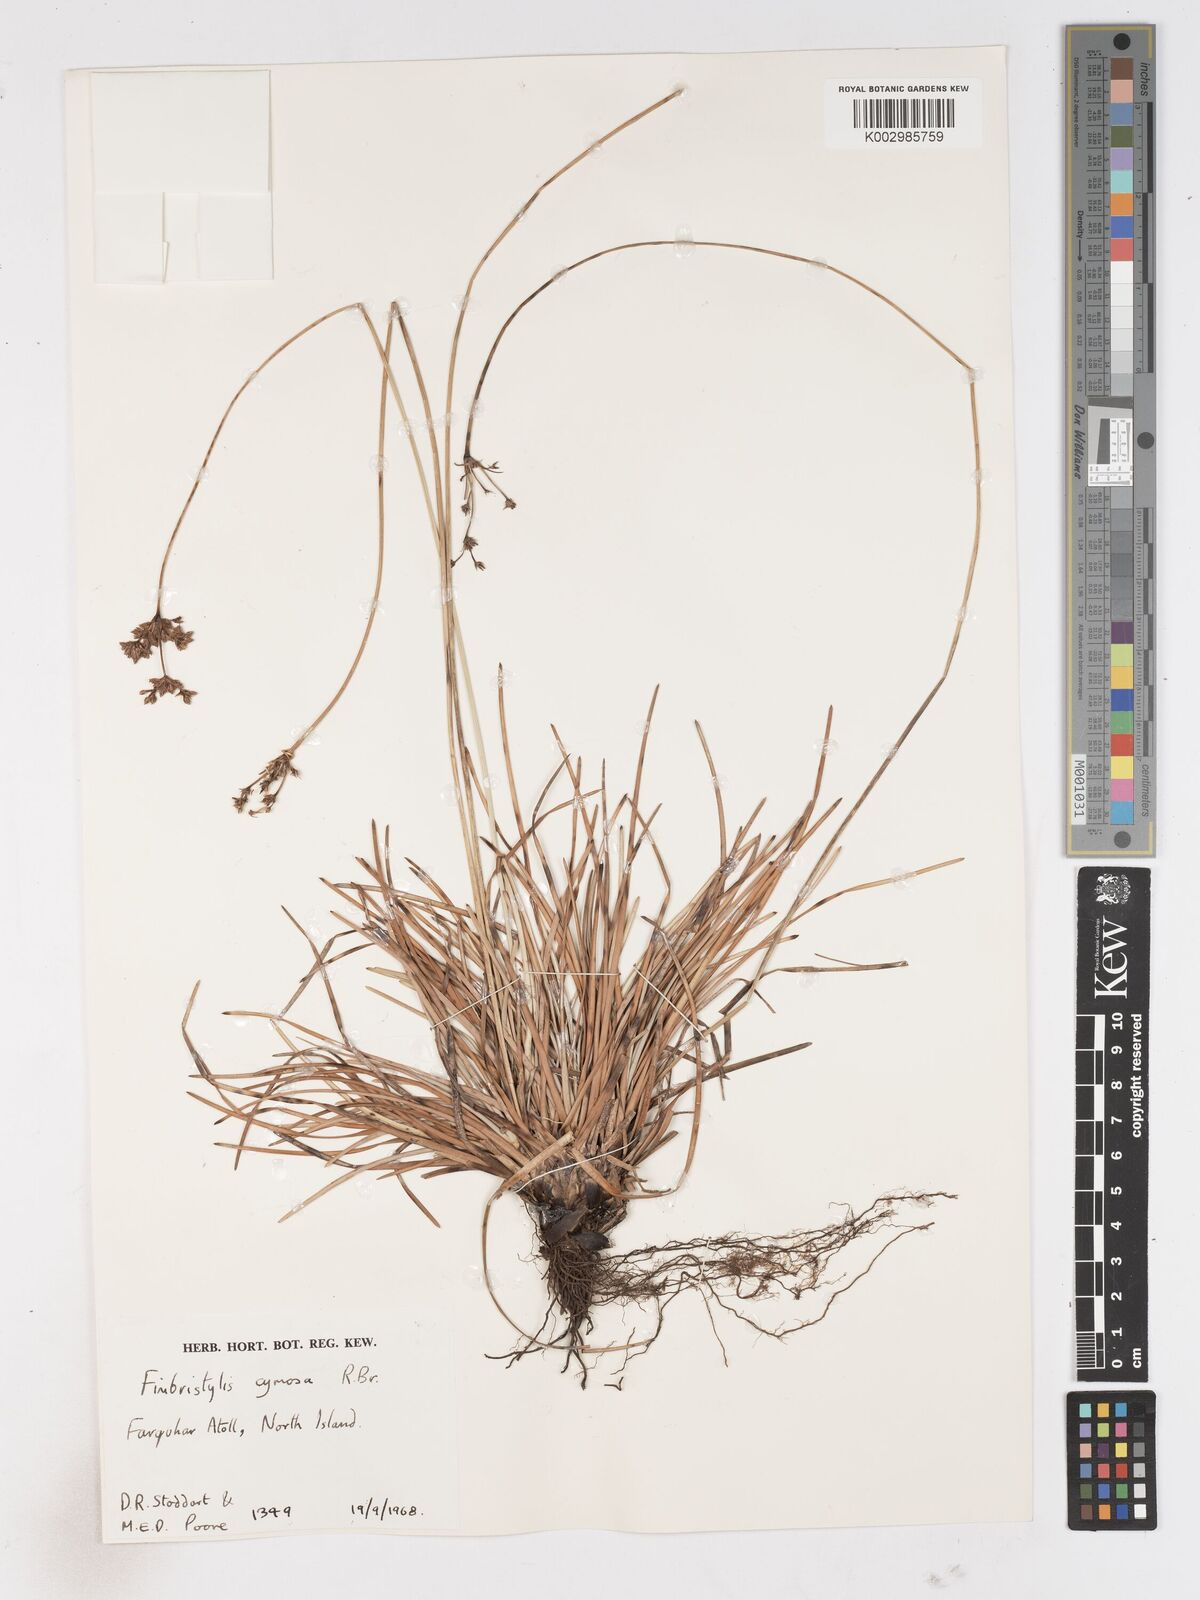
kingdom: Plantae
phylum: Tracheophyta
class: Liliopsida
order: Poales
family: Cyperaceae
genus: Fimbristylis
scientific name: Fimbristylis cymosa
